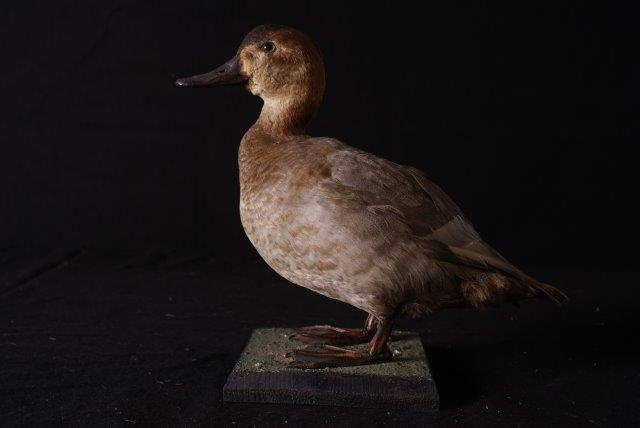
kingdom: Animalia
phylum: Chordata
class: Aves
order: Anseriformes
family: Anatidae
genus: Aythya
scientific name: Aythya ferina
